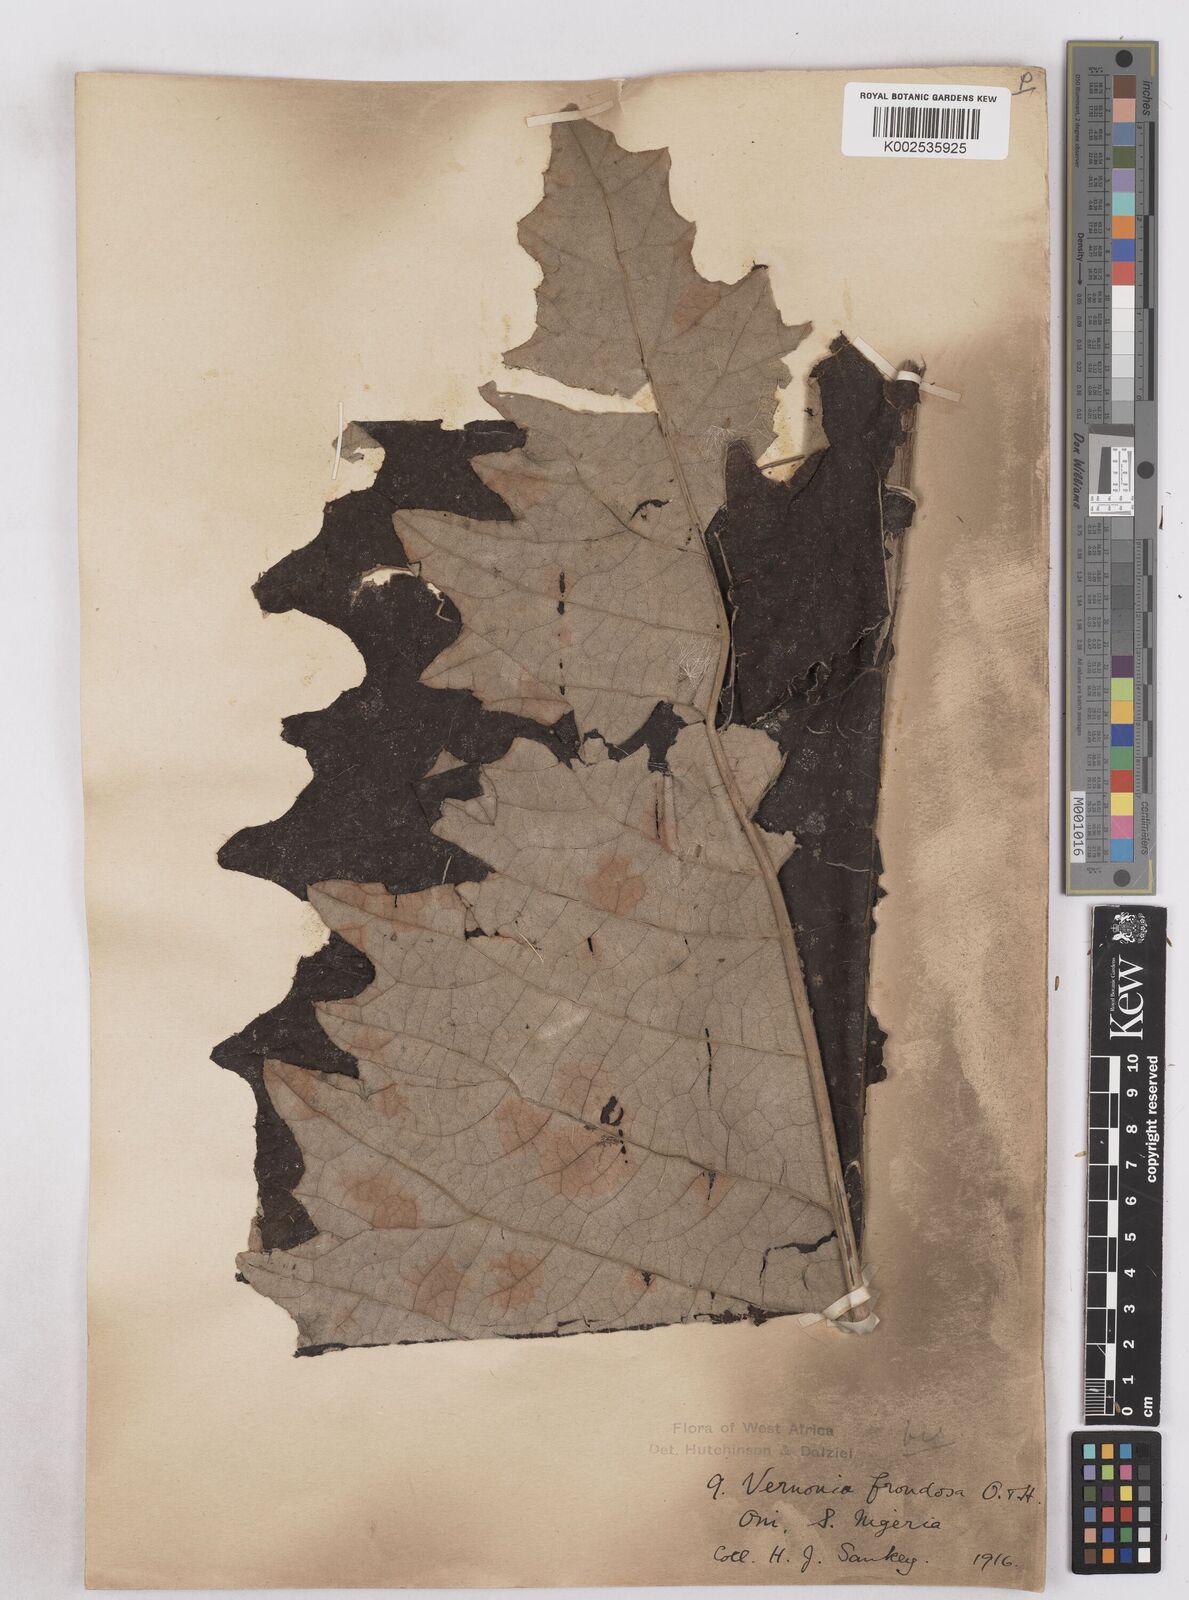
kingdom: Plantae
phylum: Tracheophyta
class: Magnoliopsida
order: Asterales
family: Asteraceae
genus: Brenandendron
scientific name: Brenandendron frondosum
